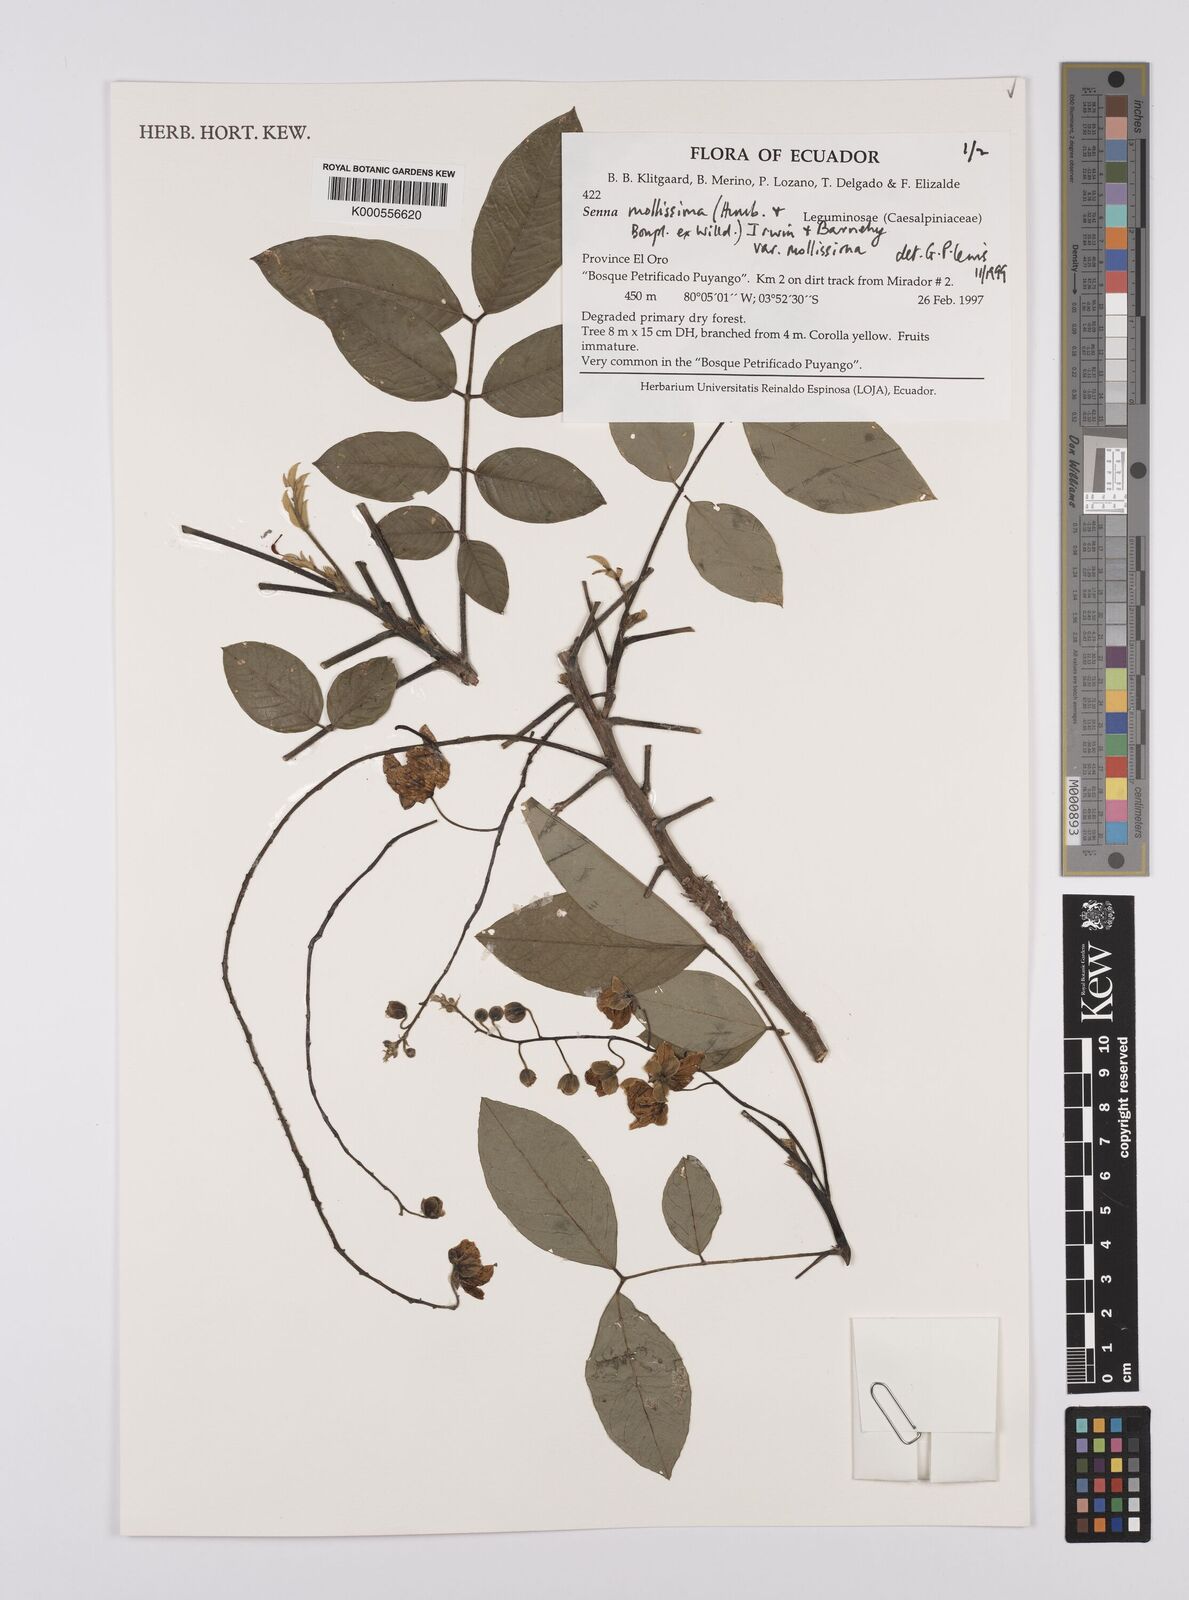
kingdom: Plantae
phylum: Tracheophyta
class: Magnoliopsida
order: Fabales
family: Fabaceae
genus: Senna
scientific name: Senna mollissima
